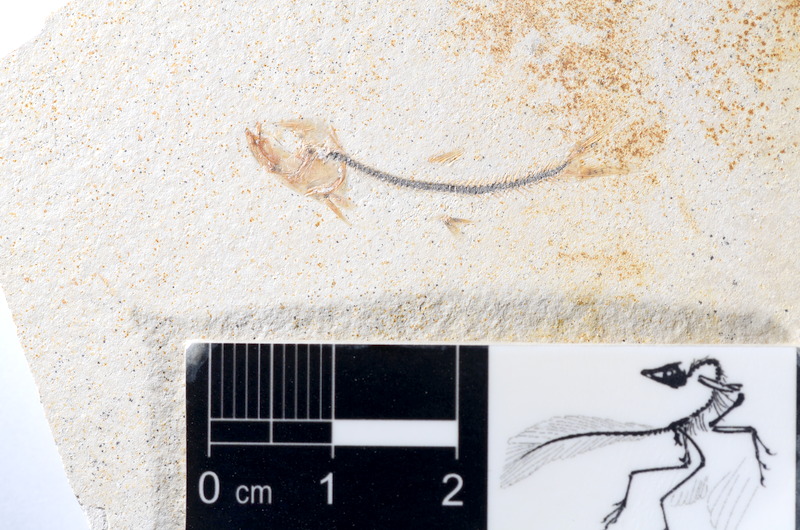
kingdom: Animalia
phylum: Chordata
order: Salmoniformes
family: Orthogonikleithridae
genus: Orthogonikleithrus
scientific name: Orthogonikleithrus hoelli
